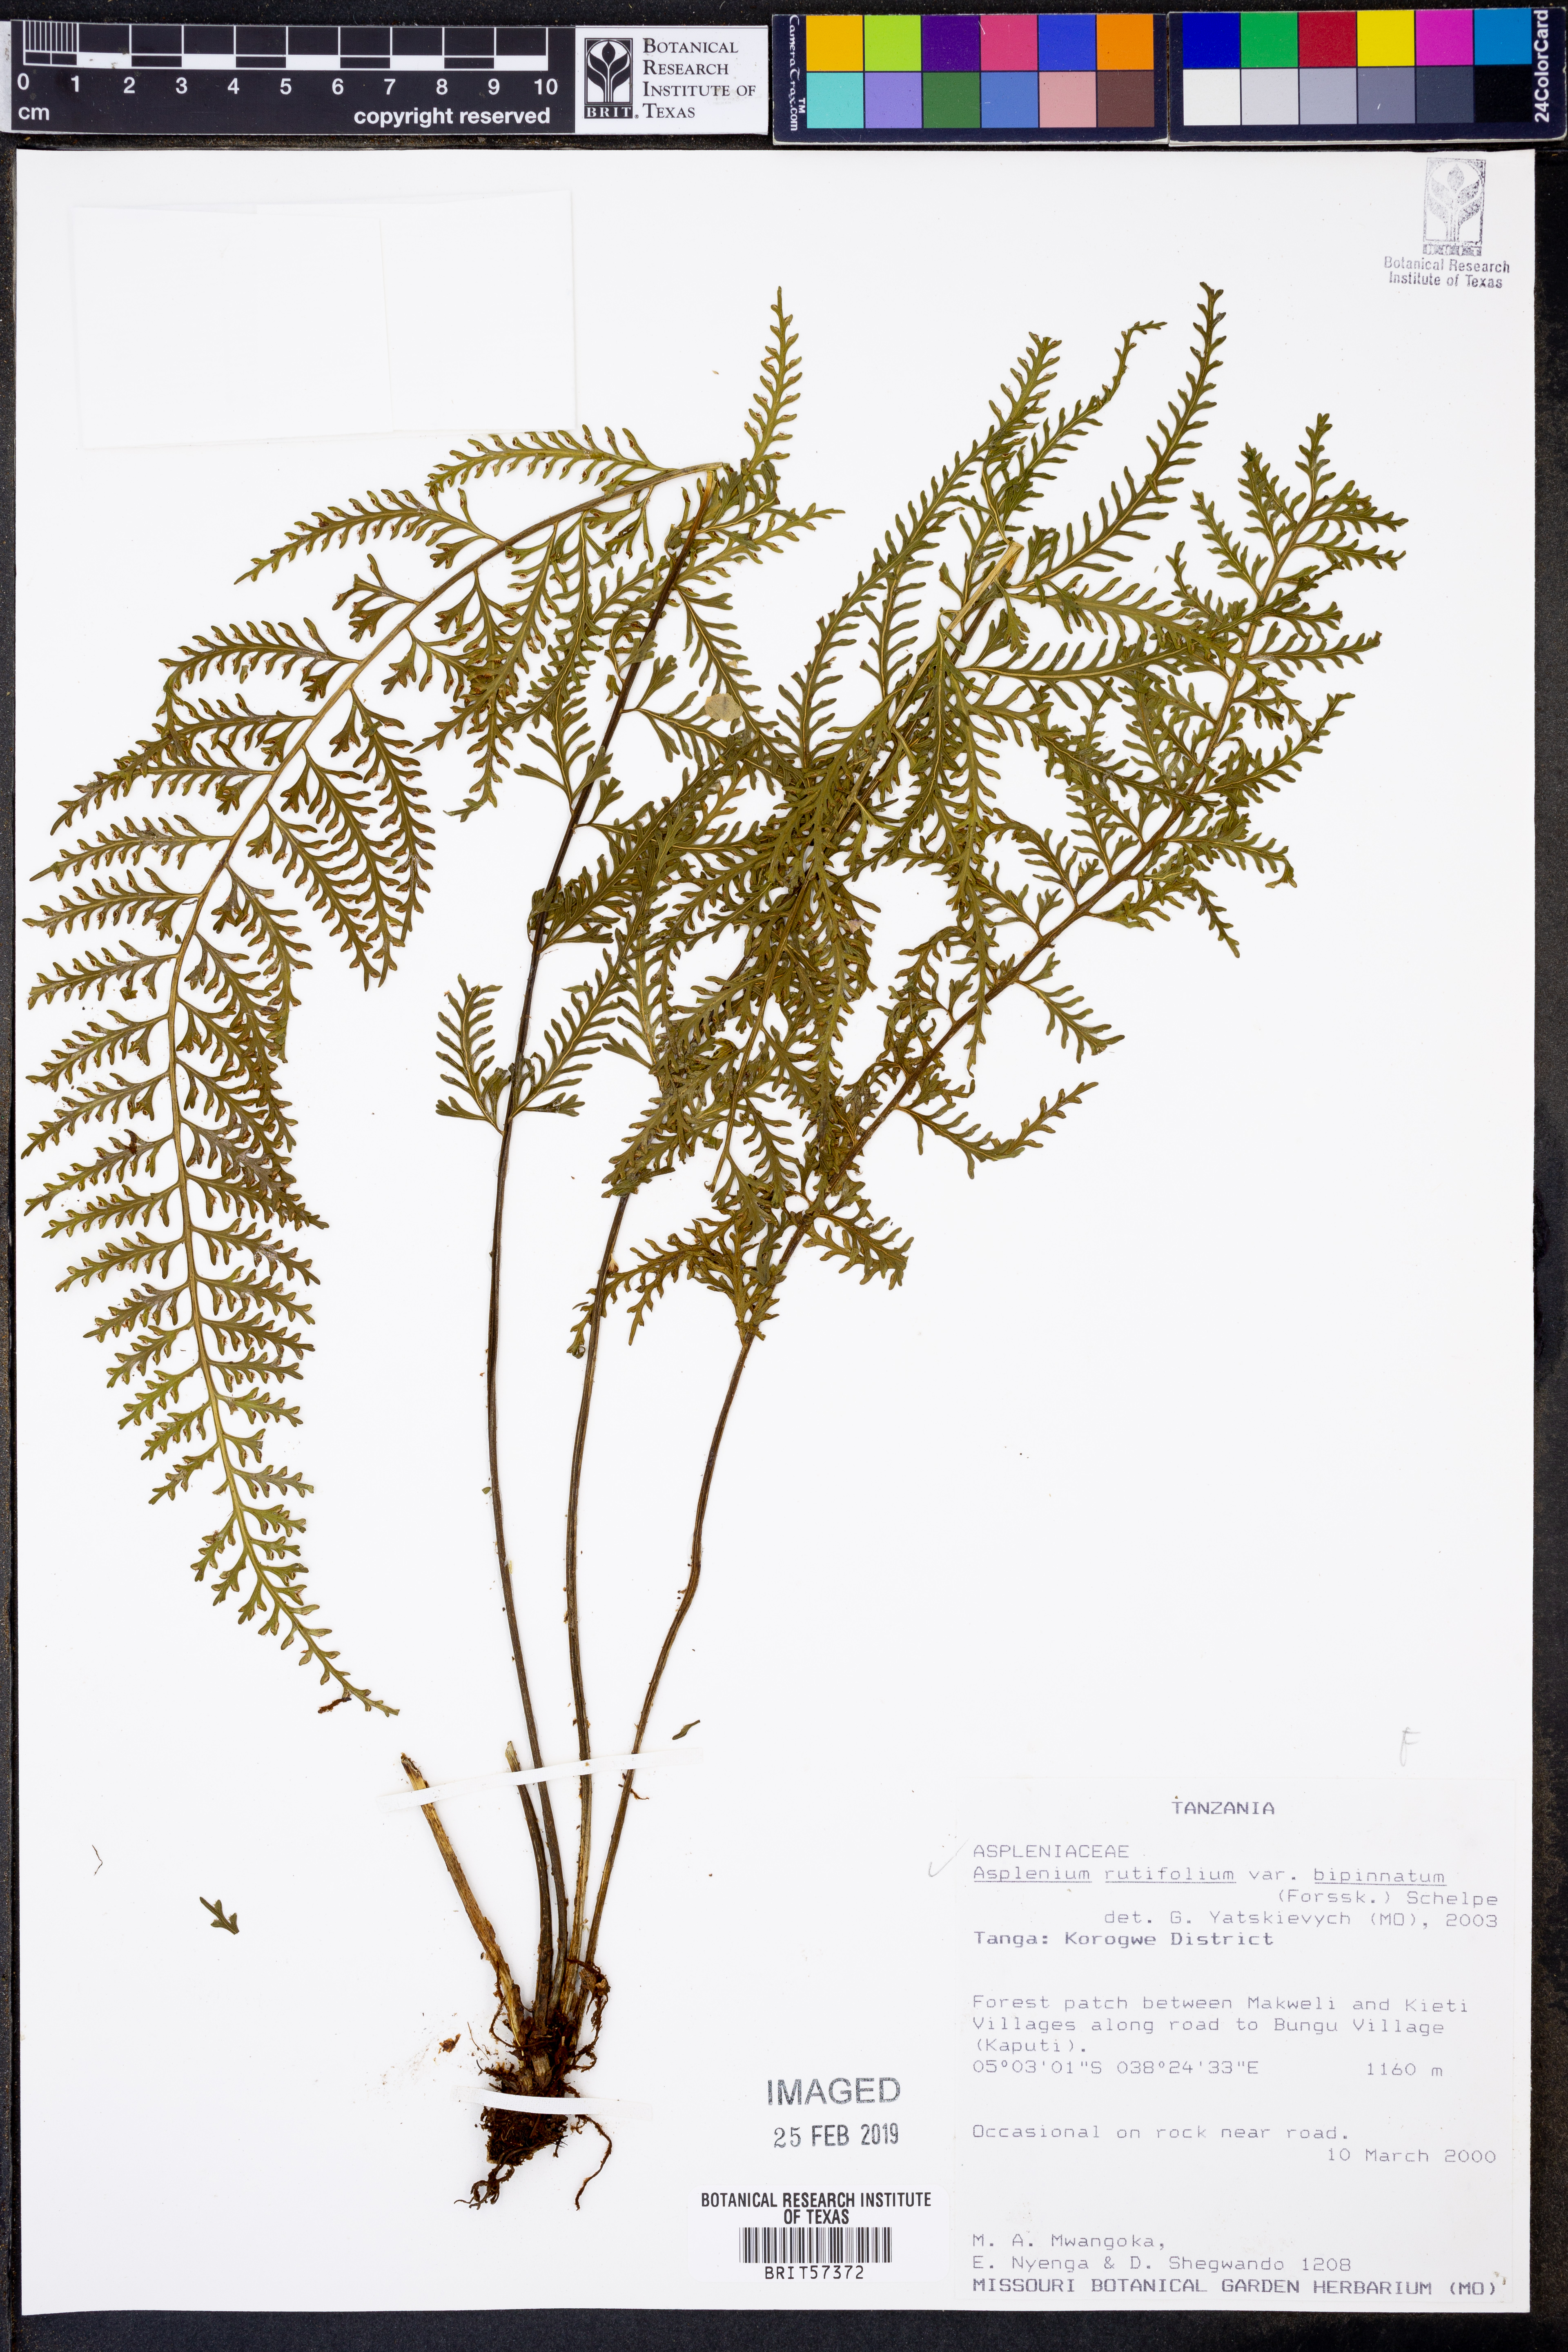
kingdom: Plantae
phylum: Tracheophyta
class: Polypodiopsida
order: Polypodiales
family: Aspleniaceae
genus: Asplenium
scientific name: Asplenium rutifolium
